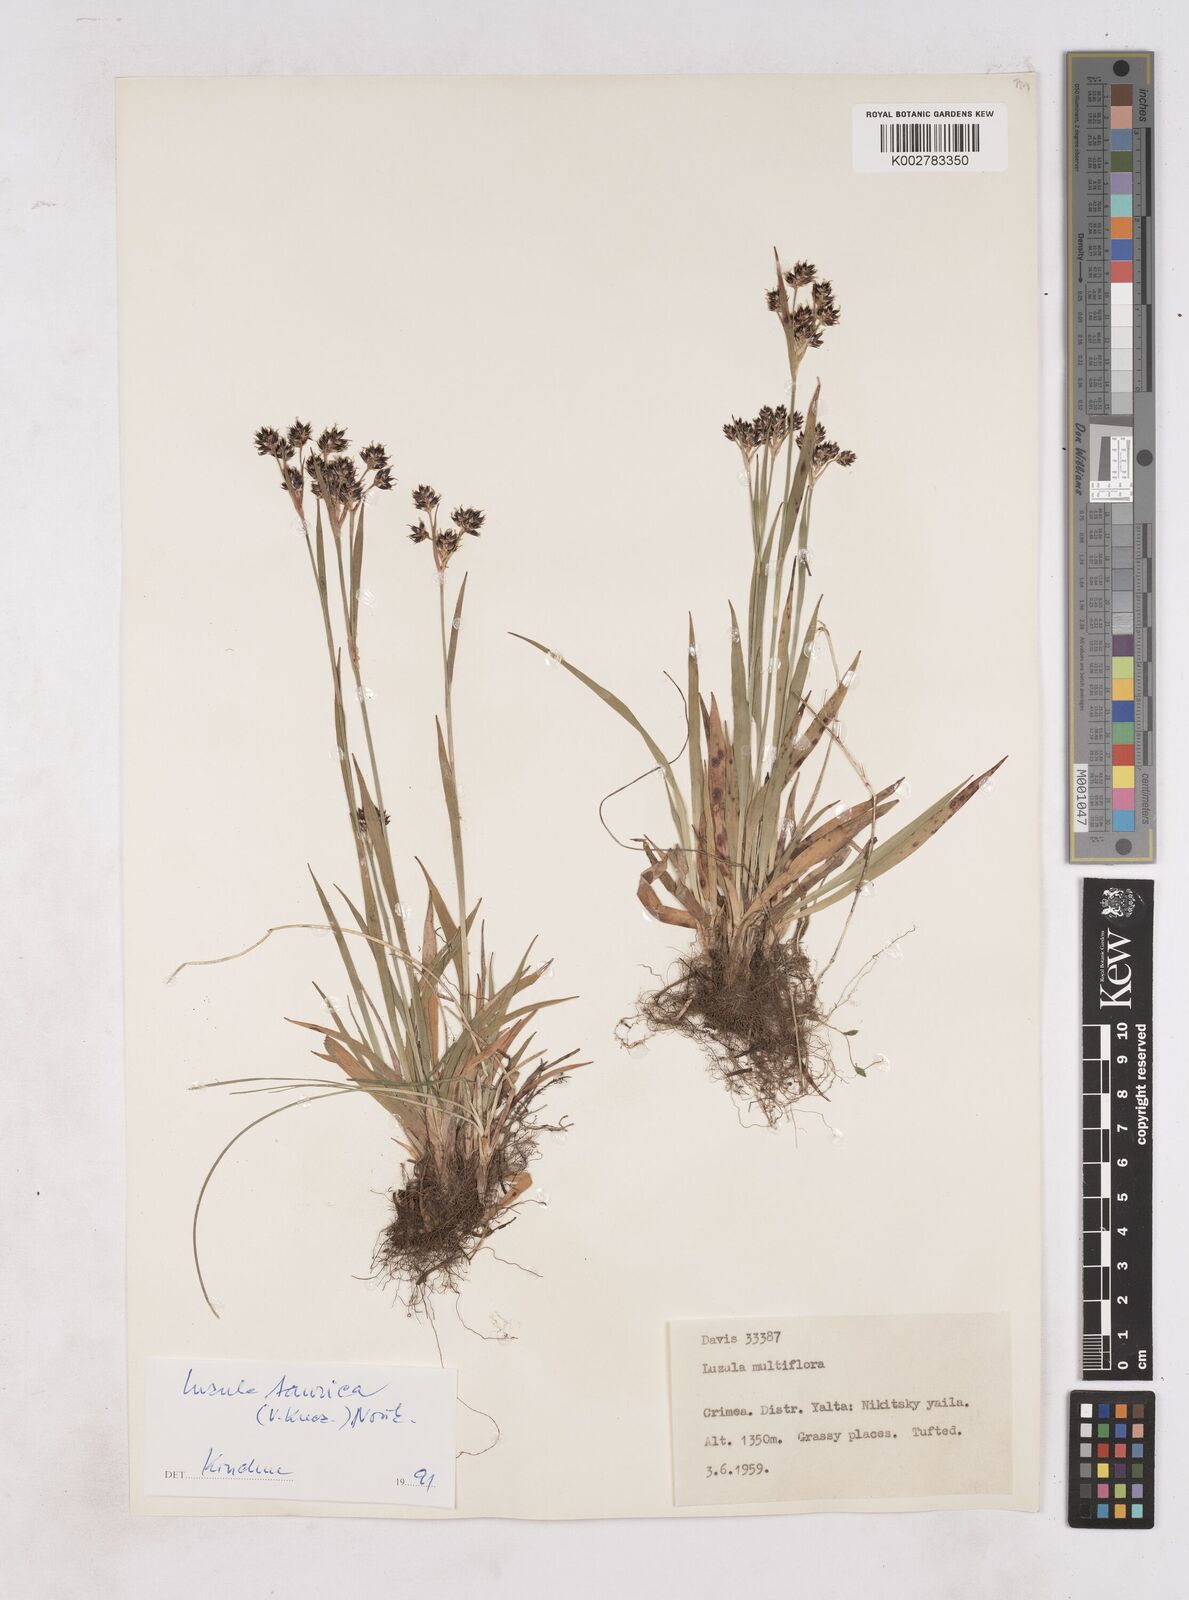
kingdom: Plantae
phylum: Tracheophyta
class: Liliopsida
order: Poales
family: Juncaceae
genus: Luzula
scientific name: Luzula multiflora
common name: Heath wood-rush
